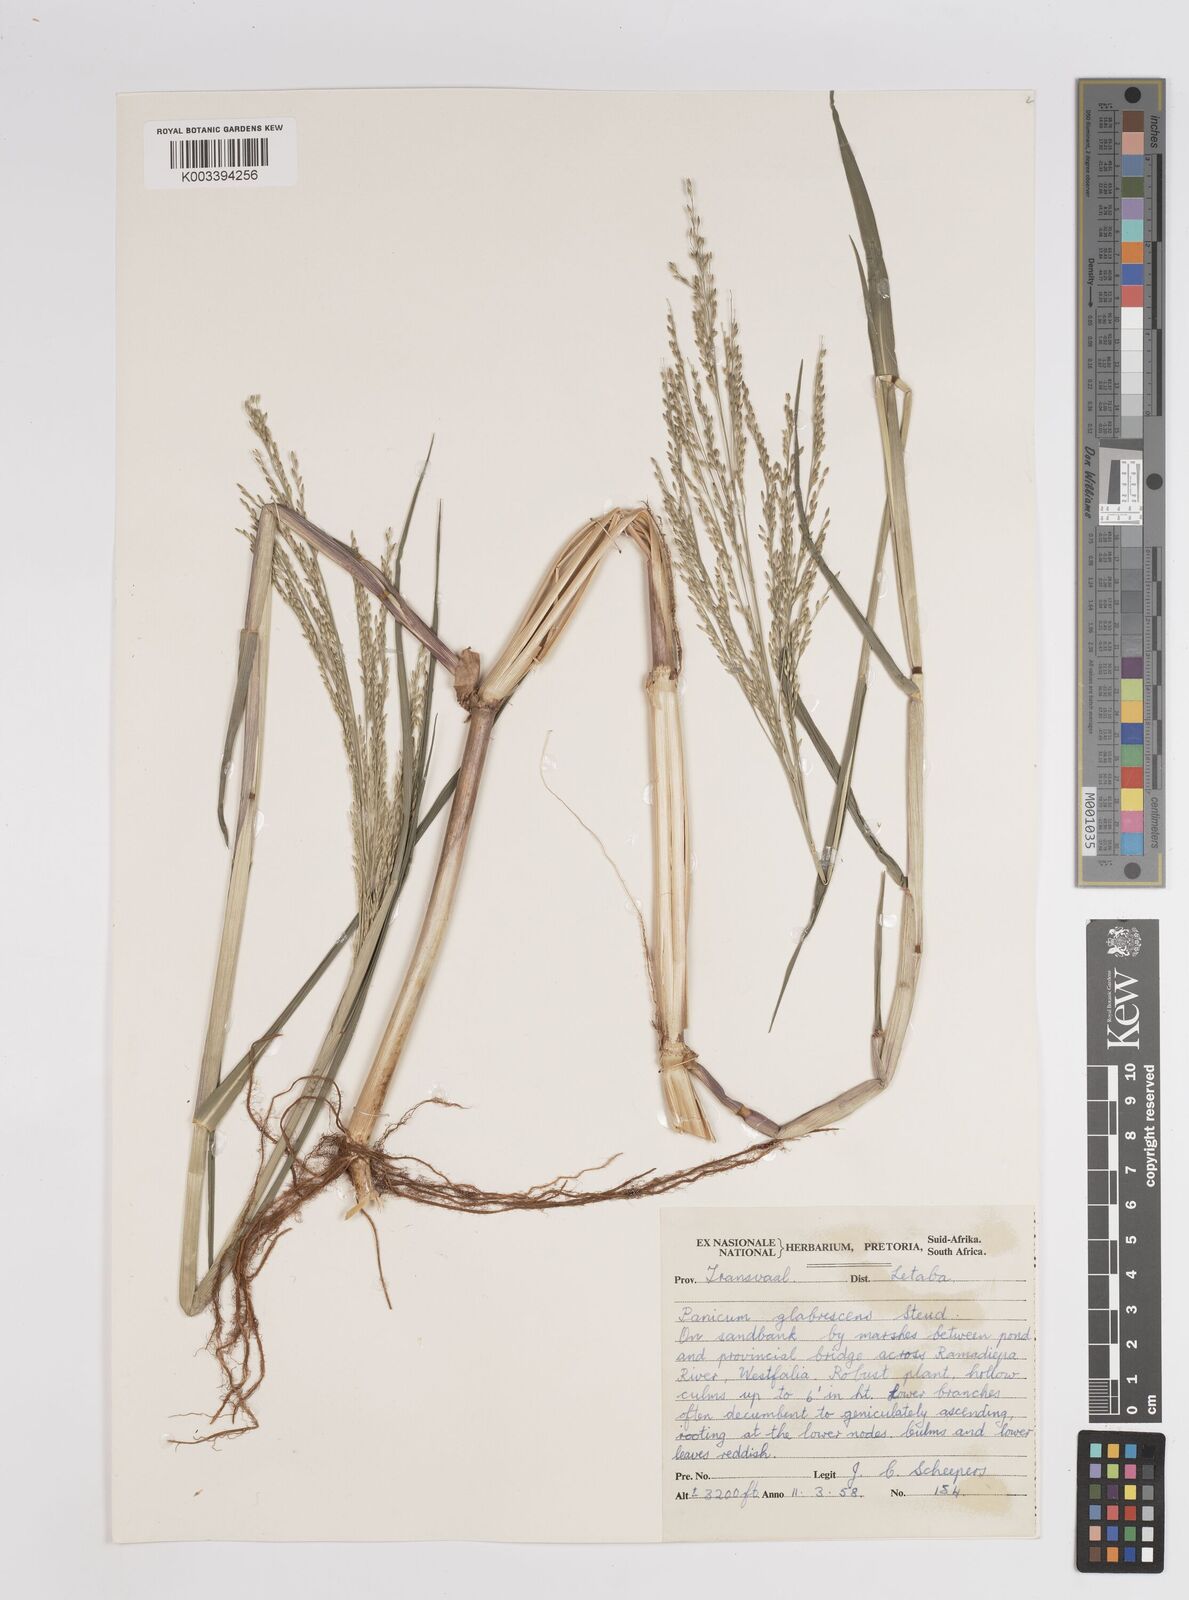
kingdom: Plantae
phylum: Tracheophyta
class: Liliopsida
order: Poales
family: Poaceae
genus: Panicum
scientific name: Panicum subalbidum
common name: Elbow buffalo grass
